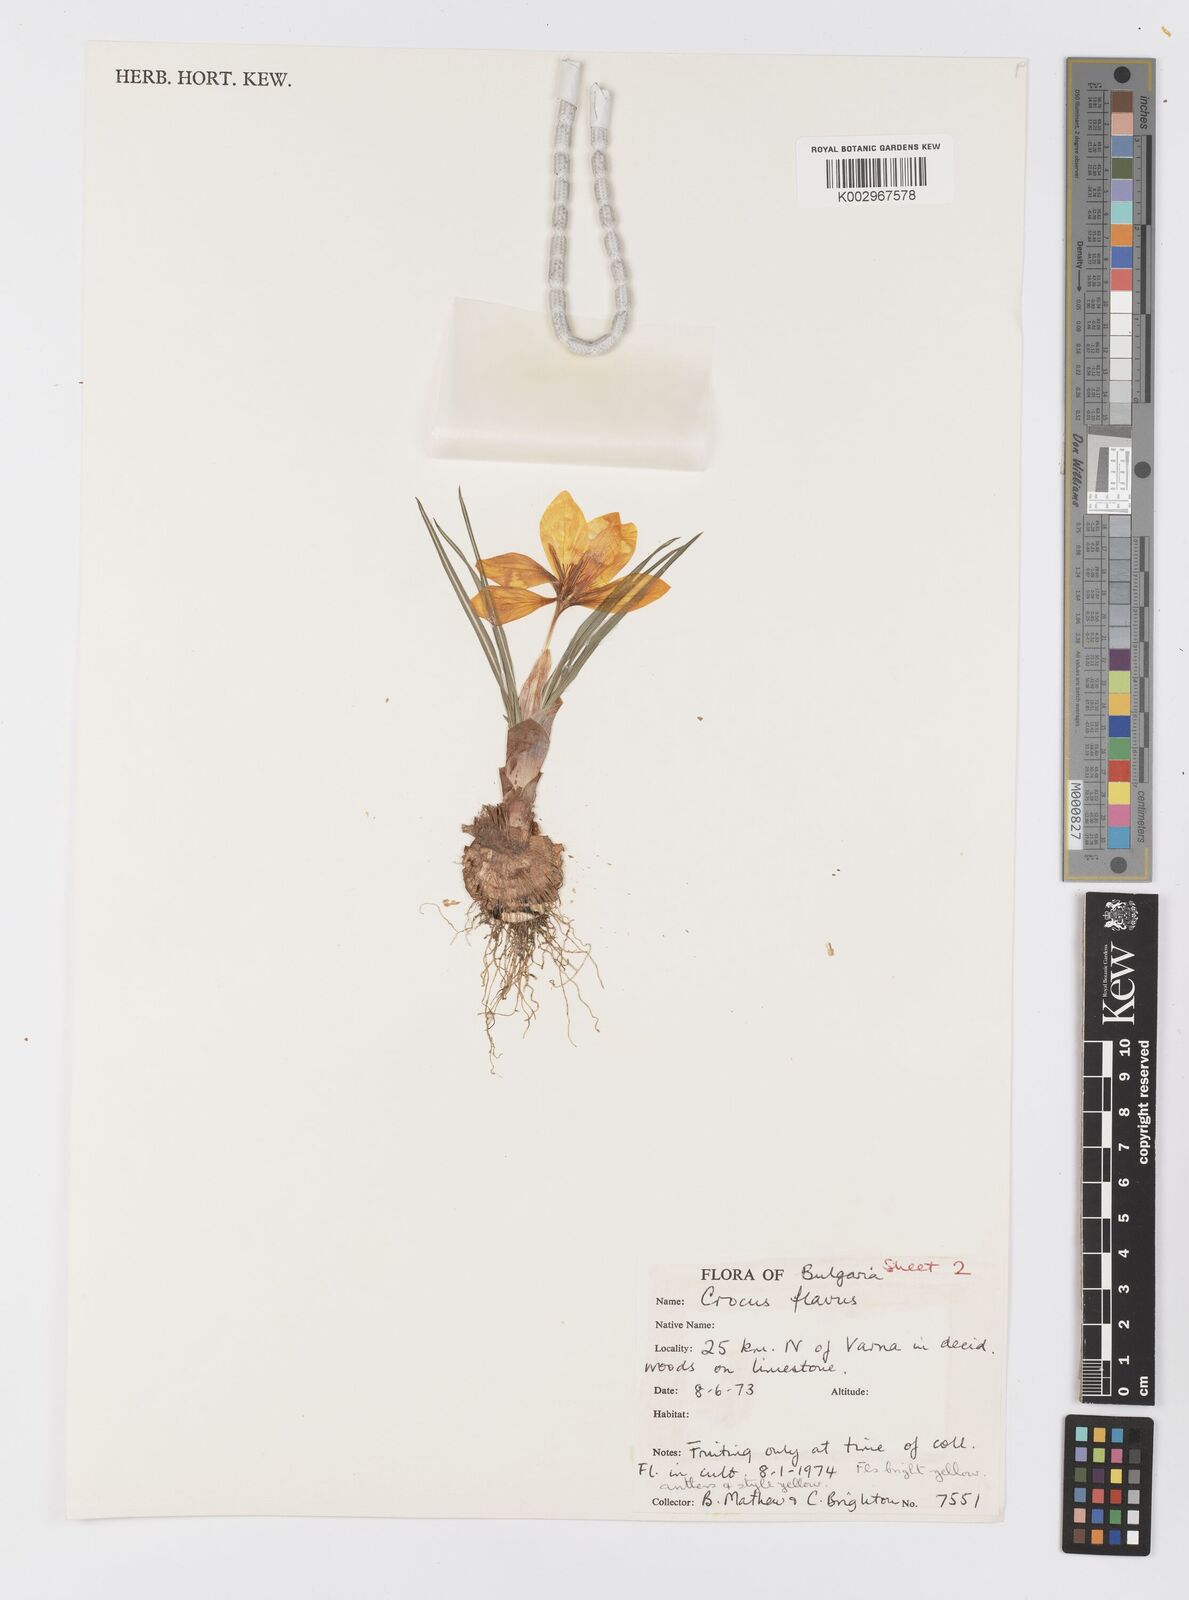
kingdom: Plantae
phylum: Tracheophyta
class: Liliopsida
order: Asparagales
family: Iridaceae
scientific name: Iridaceae
